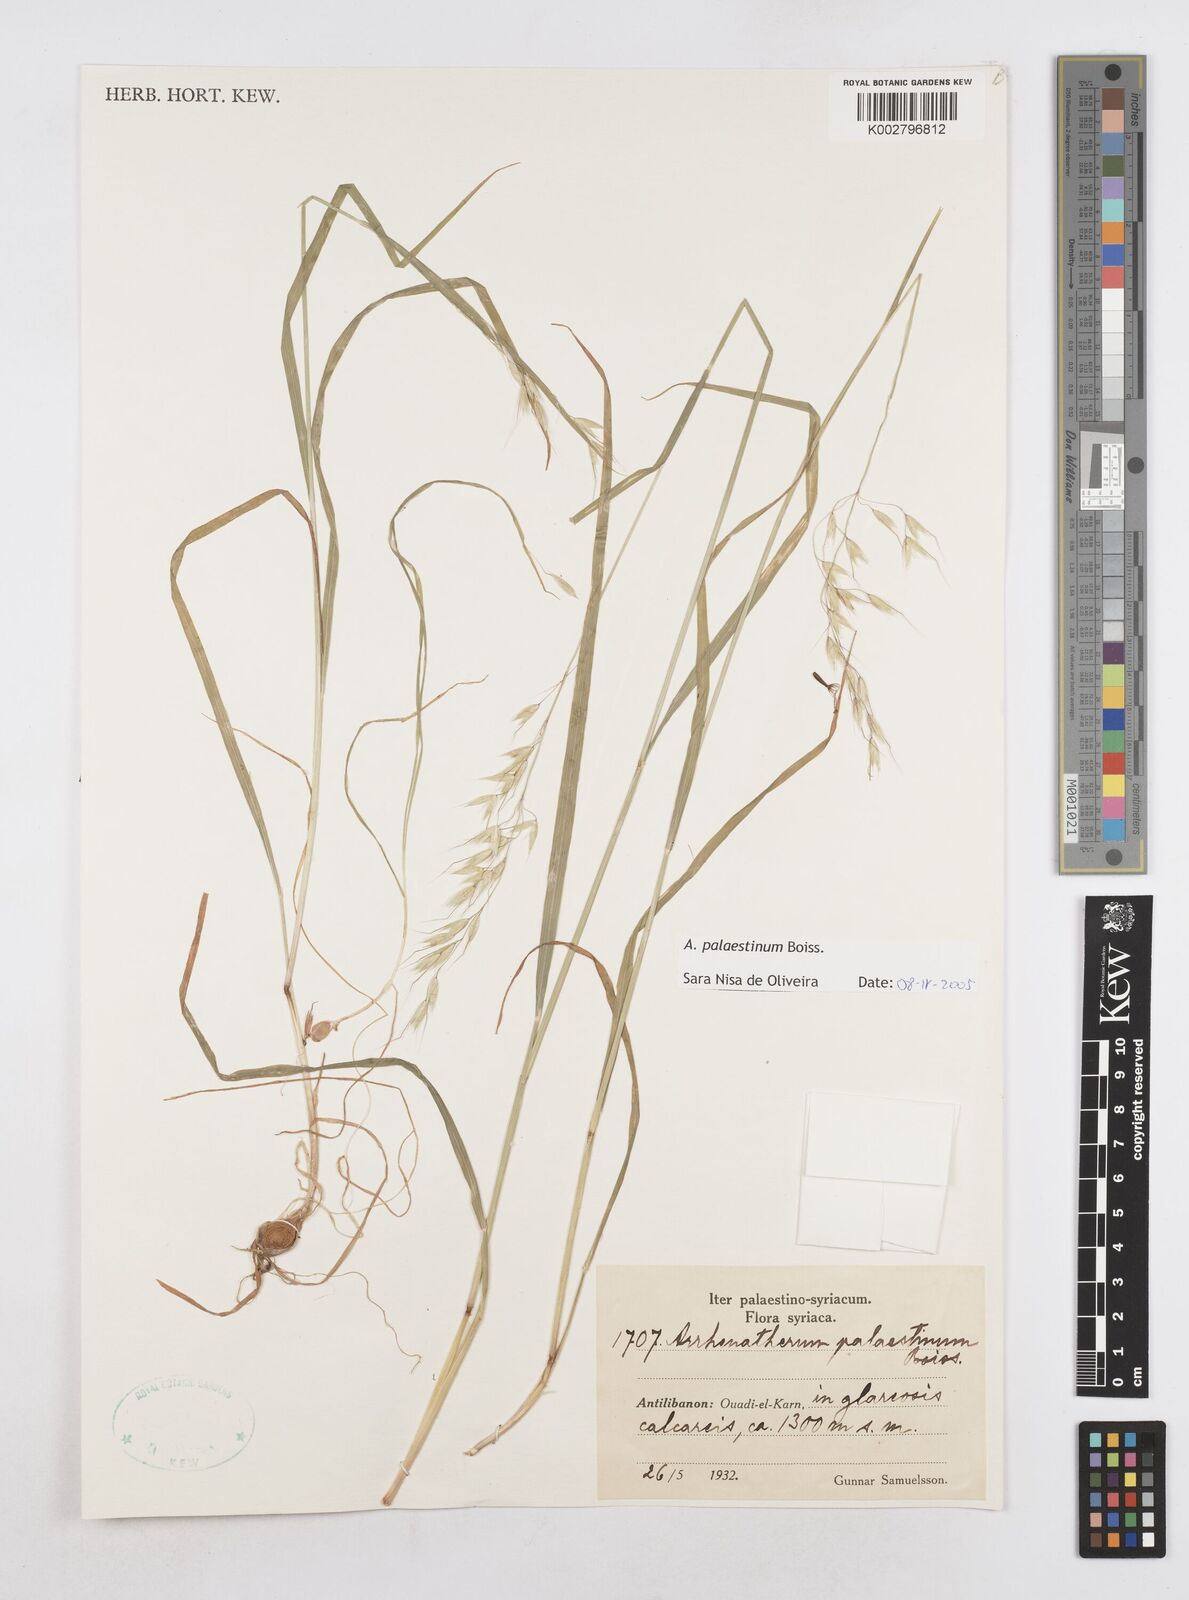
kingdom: Plantae
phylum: Tracheophyta
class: Liliopsida
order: Poales
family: Poaceae
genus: Arrhenatherum
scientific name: Arrhenatherum palaestinum
